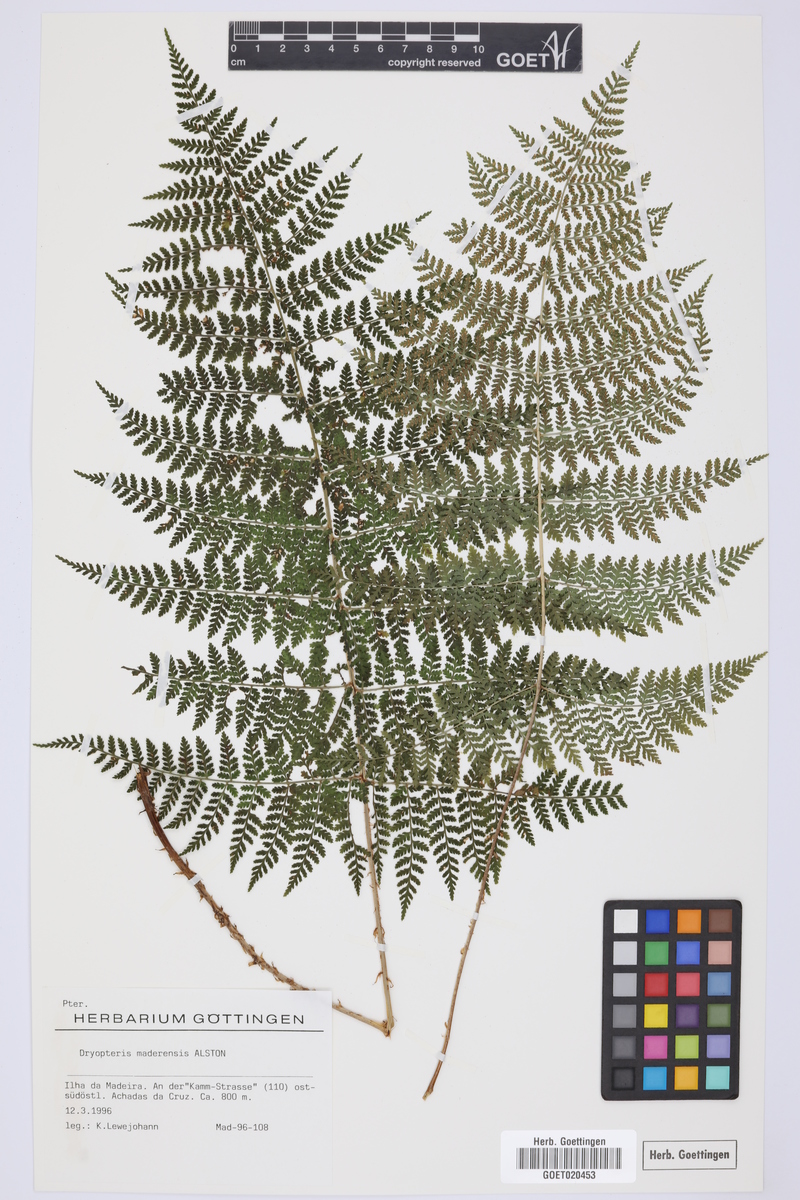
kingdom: Plantae
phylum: Tracheophyta
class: Polypodiopsida
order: Polypodiales
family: Dryopteridaceae
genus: Dryopteris
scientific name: Dryopteris intermedia
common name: Evergreen wood fern
